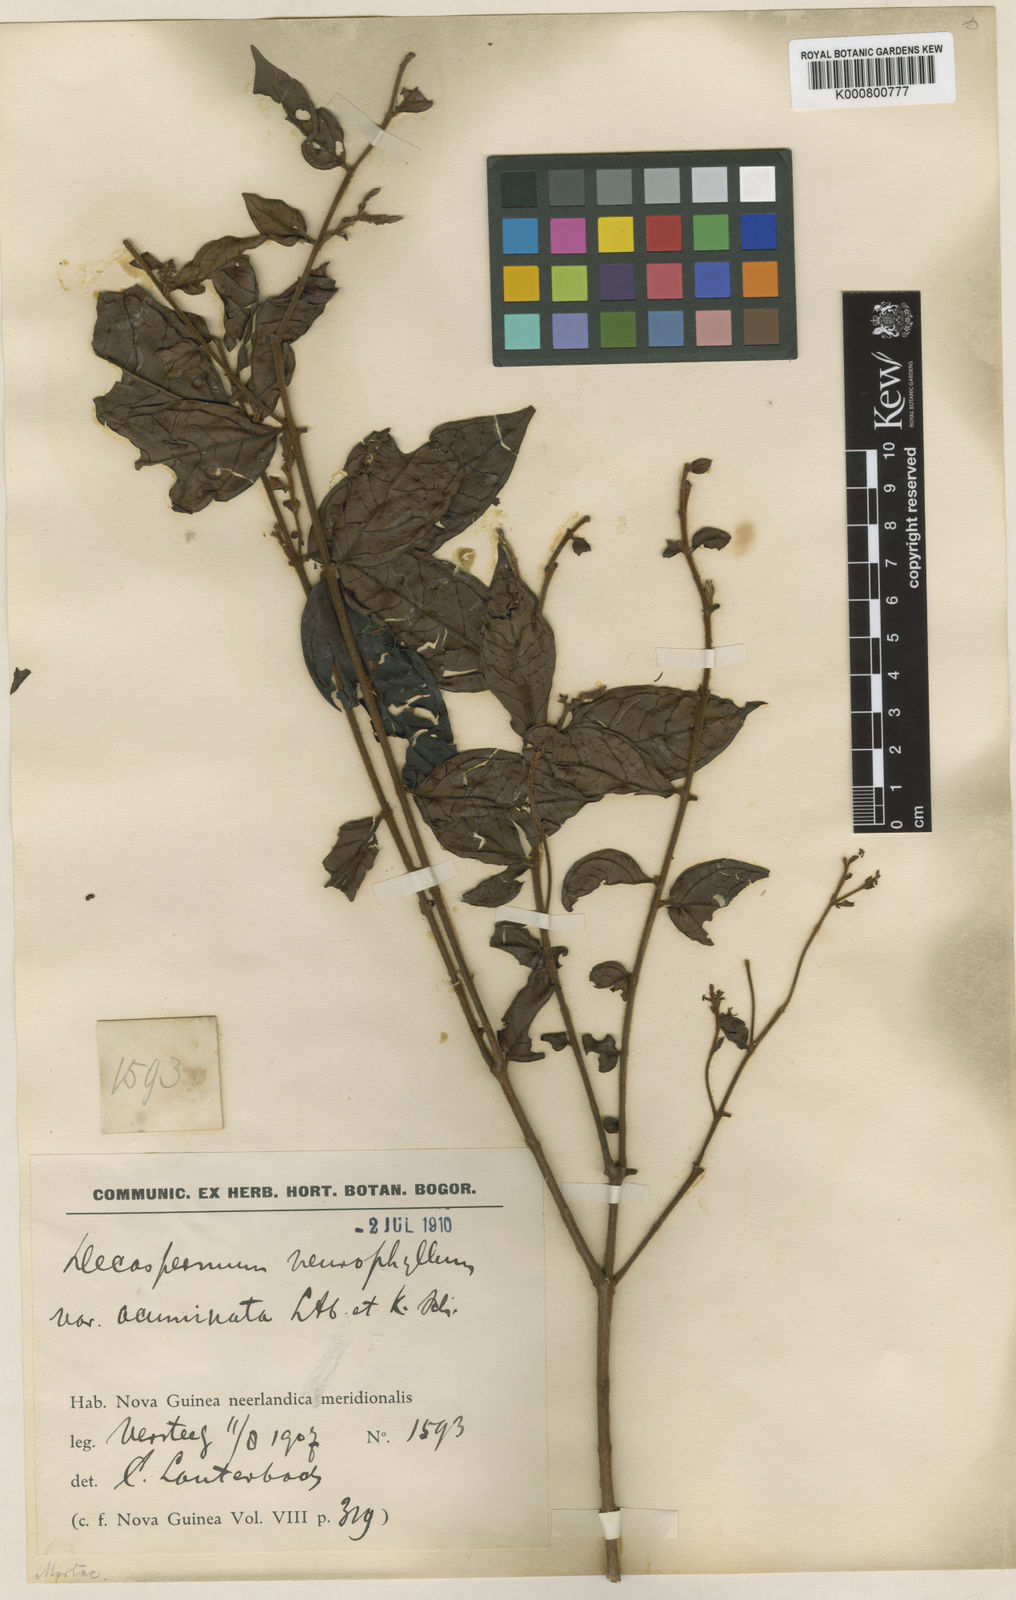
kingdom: Plantae
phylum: Tracheophyta
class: Magnoliopsida
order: Myrtales
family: Myrtaceae
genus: Decaspermum
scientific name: Decaspermum neurophyllum
